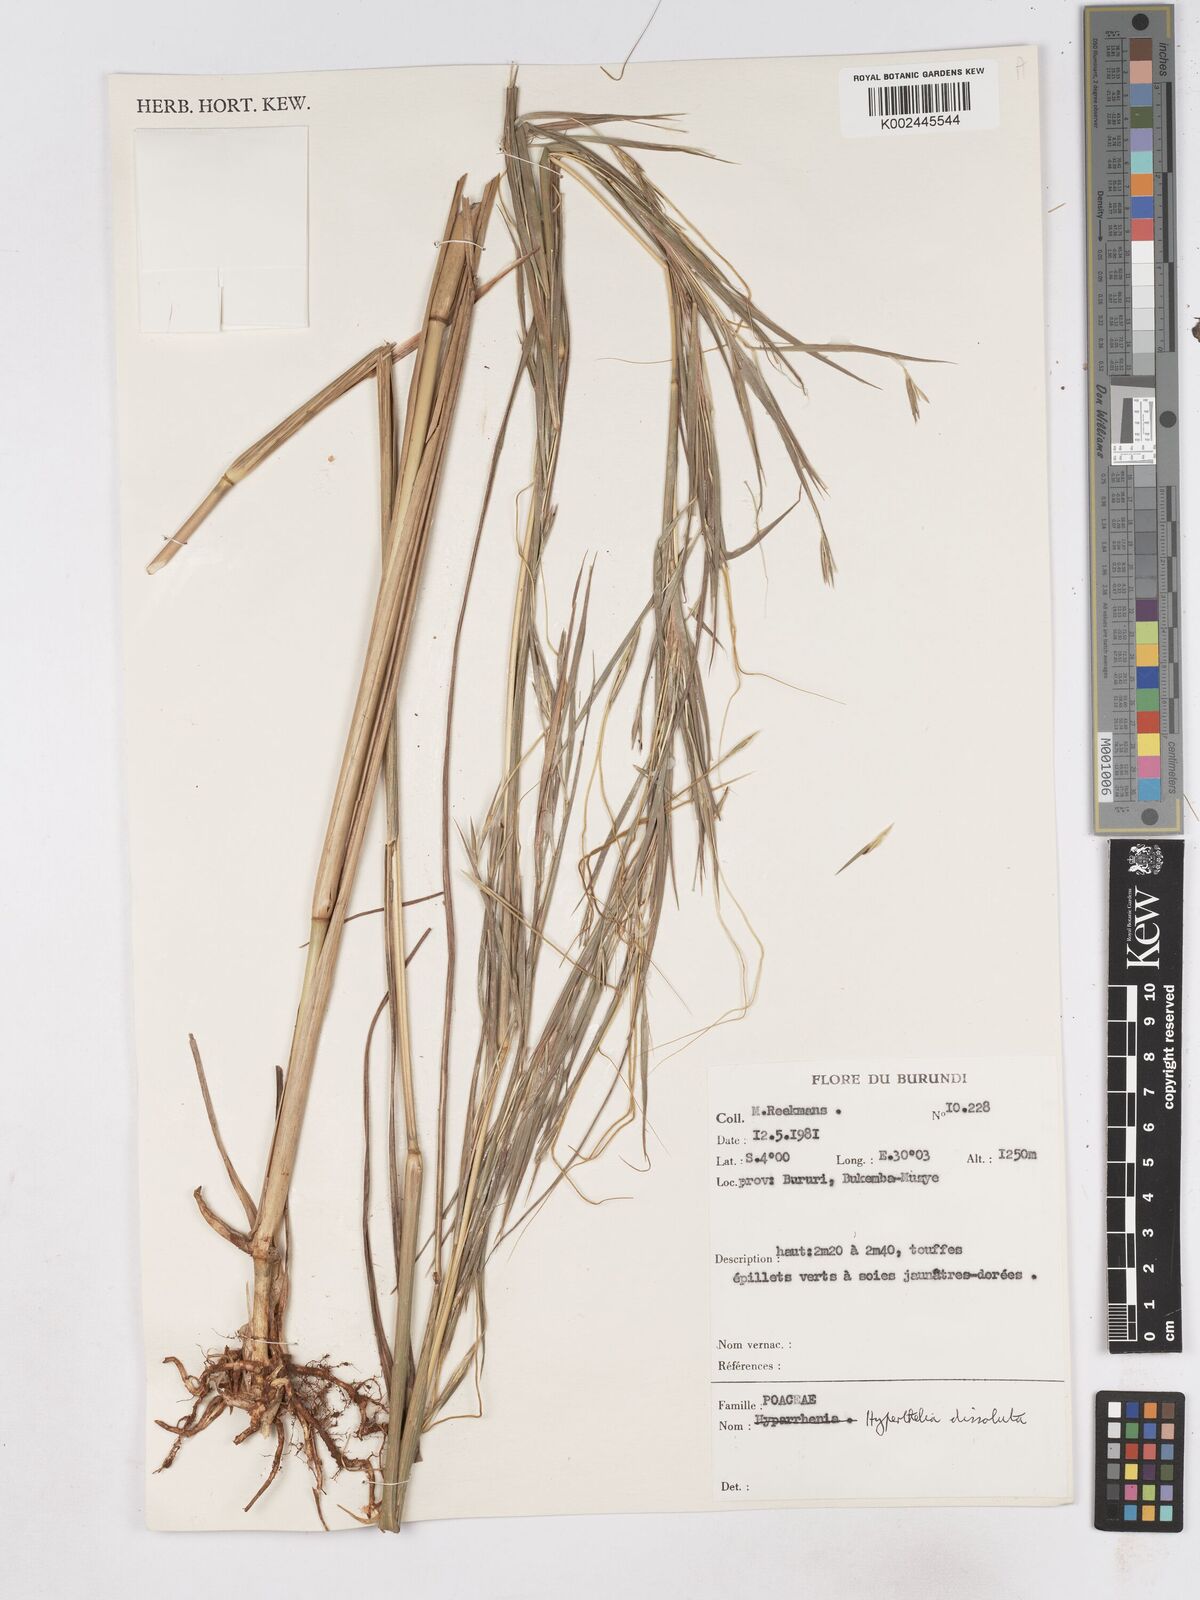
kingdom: Plantae
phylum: Tracheophyta
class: Liliopsida
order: Poales
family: Poaceae
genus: Hyperthelia
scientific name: Hyperthelia dissoluta
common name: Yellow thatching grass
